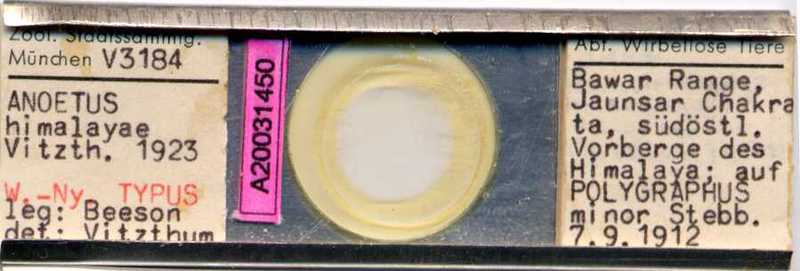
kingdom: Animalia
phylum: Arthropoda
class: Arachnida
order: Sarcoptiformes
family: Histiostomatidae
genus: Histiostoma
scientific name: Histiostoma himalayae
